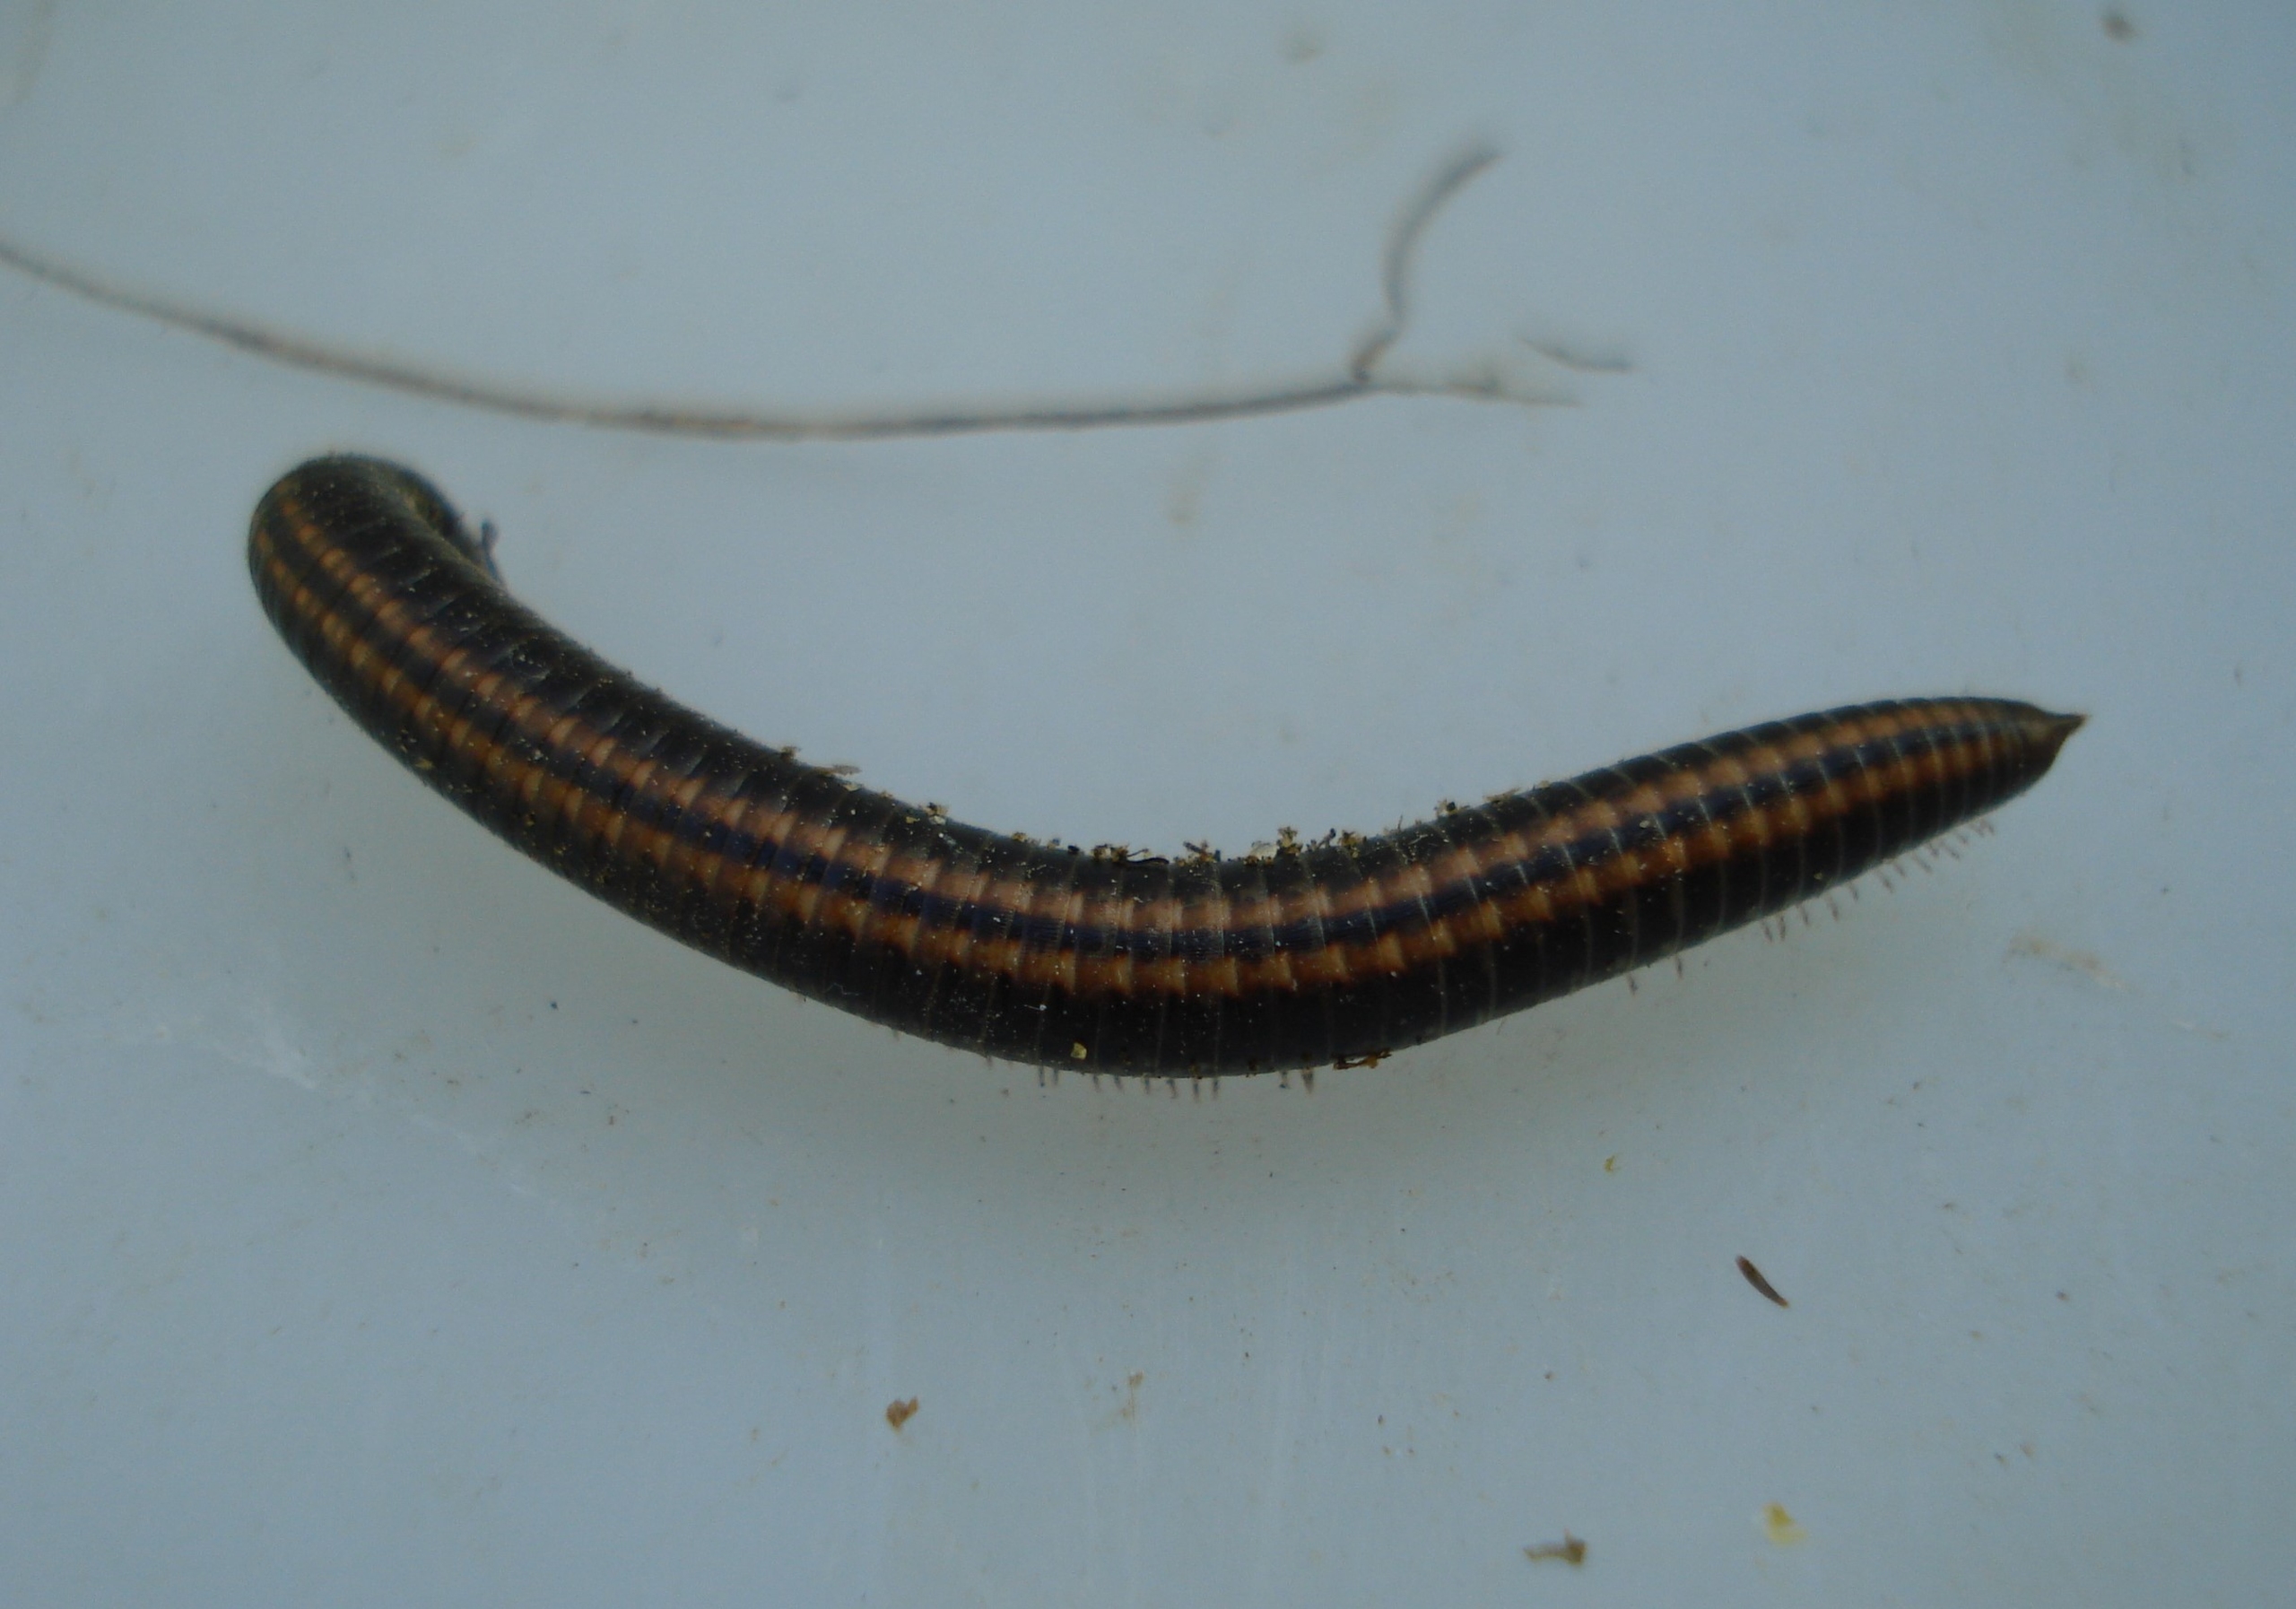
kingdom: Animalia
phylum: Arthropoda
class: Diplopoda
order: Julida
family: Julidae
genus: Ommatoiulus
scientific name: Ommatoiulus sabulosus
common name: Stor bånd-tusindben
